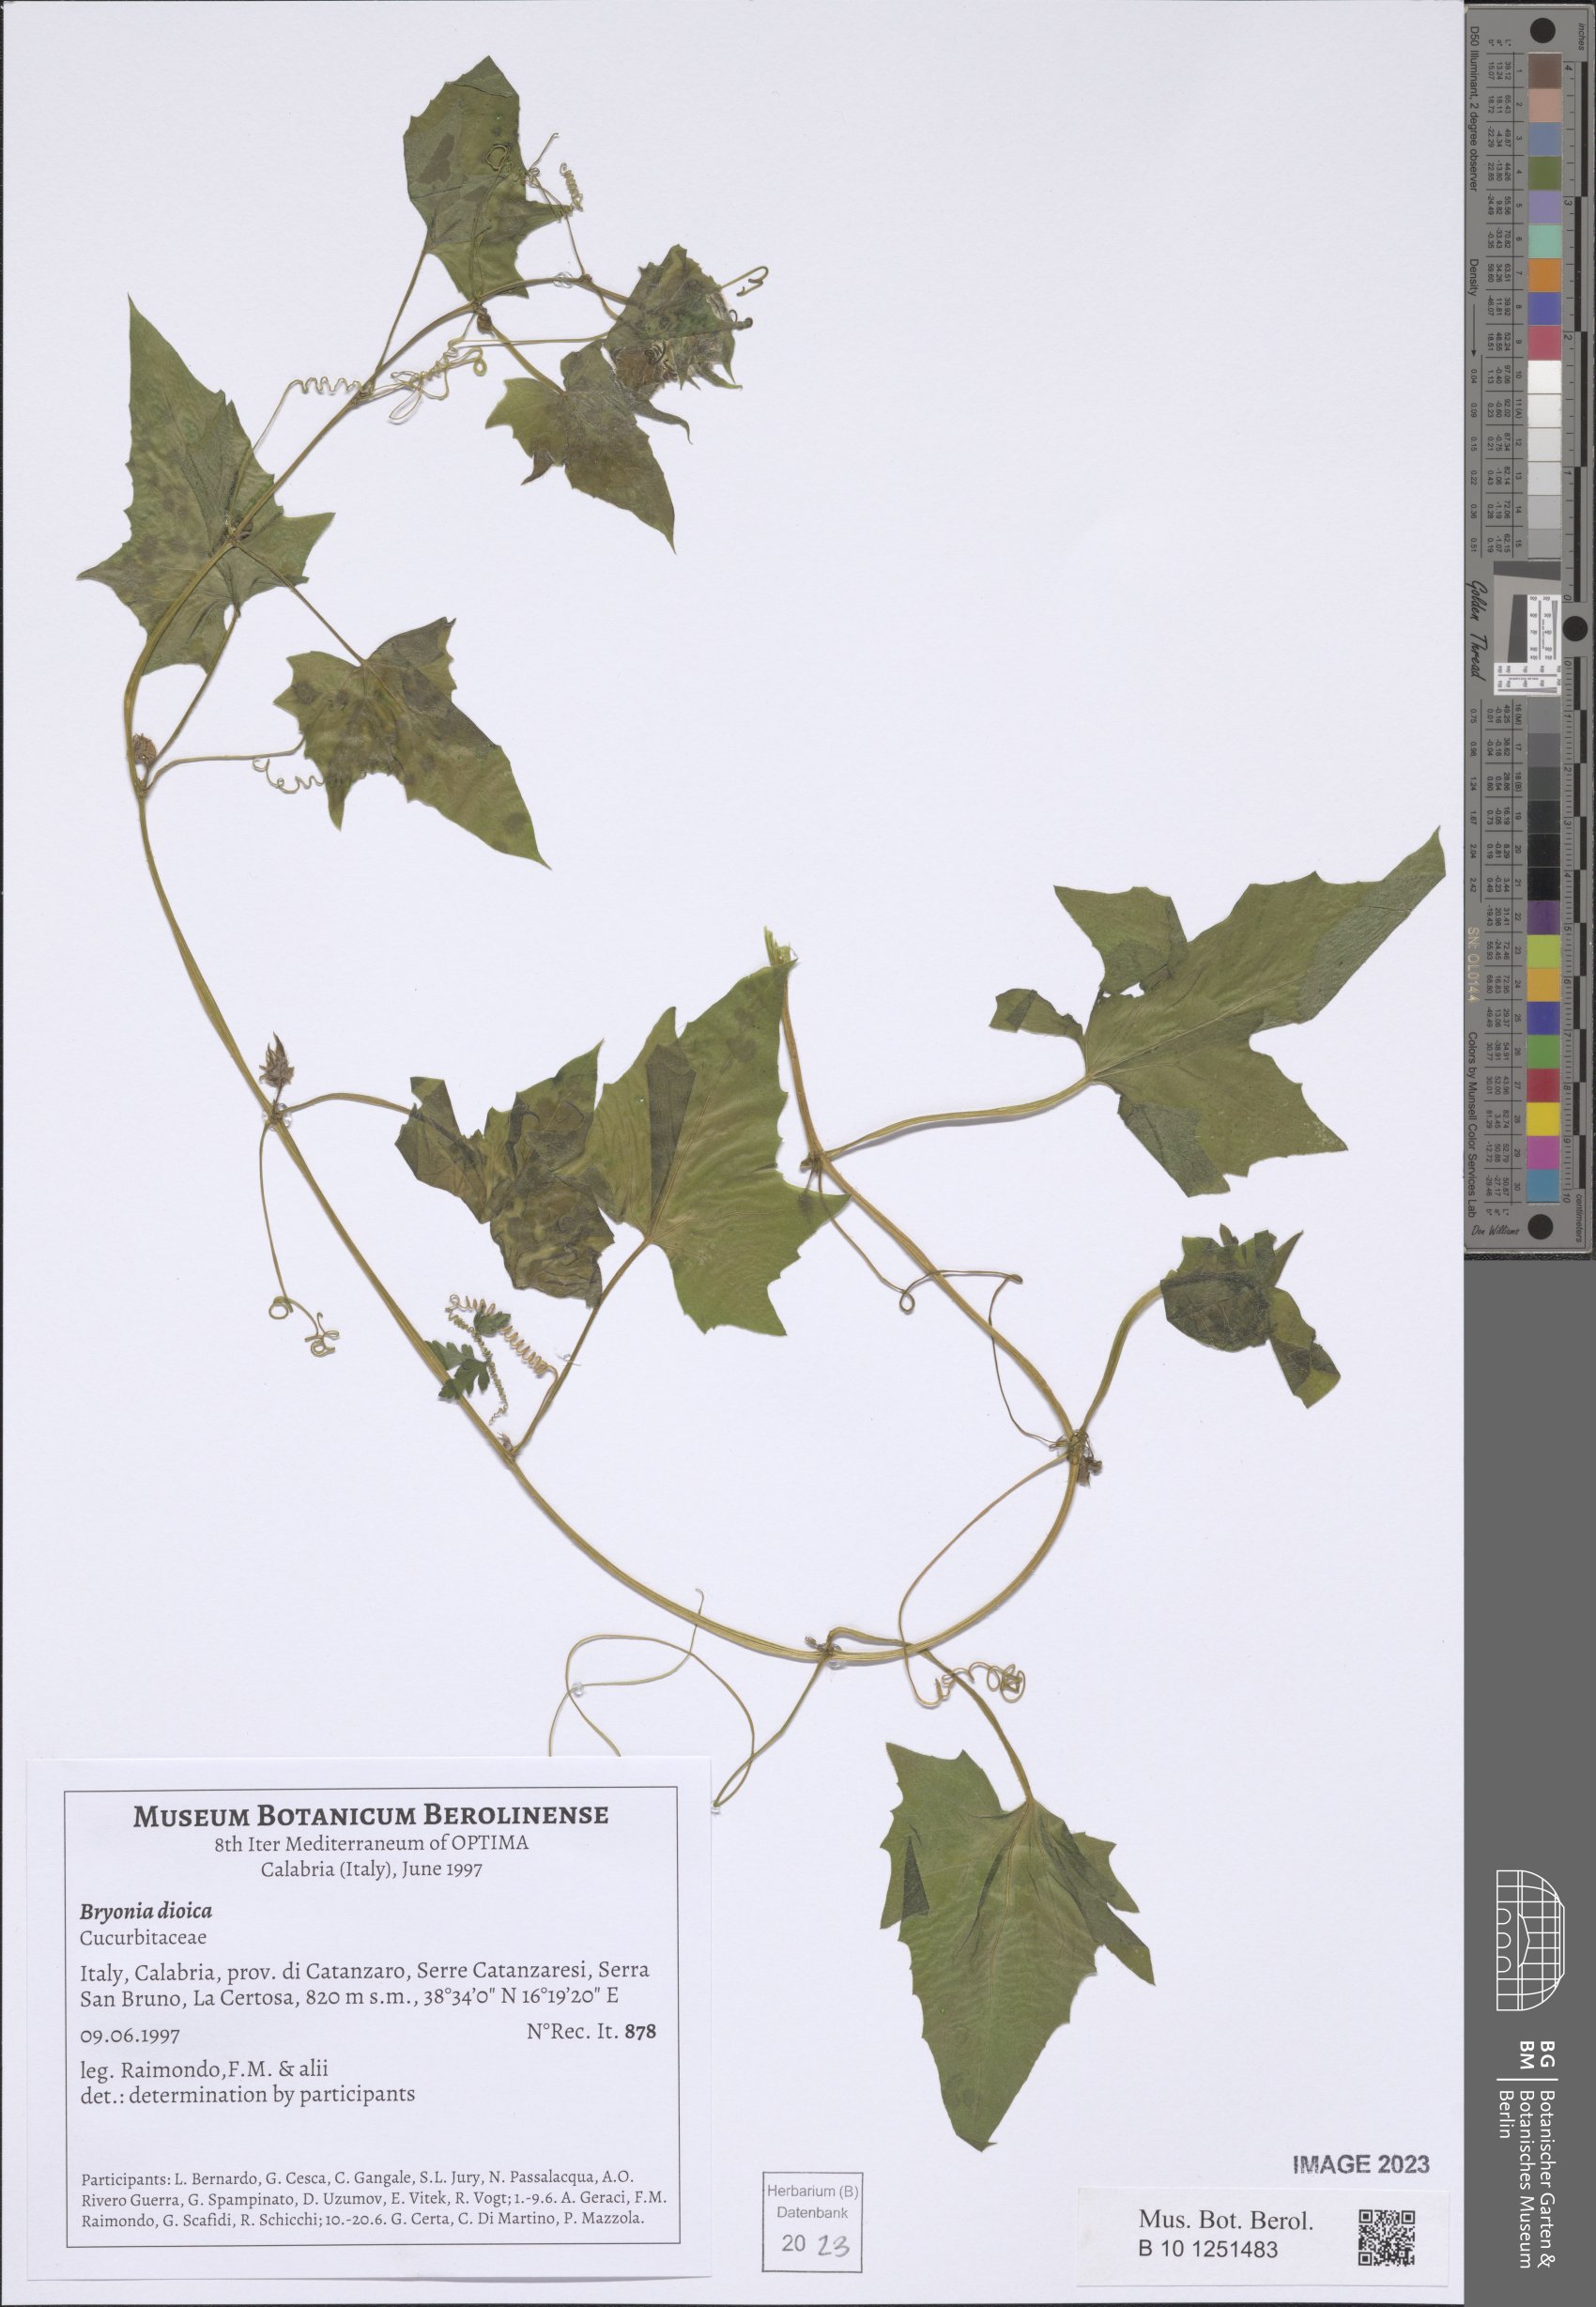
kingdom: Plantae
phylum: Tracheophyta
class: Magnoliopsida
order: Cucurbitales
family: Cucurbitaceae
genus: Bryonia
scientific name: Bryonia dioica
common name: White bryony
